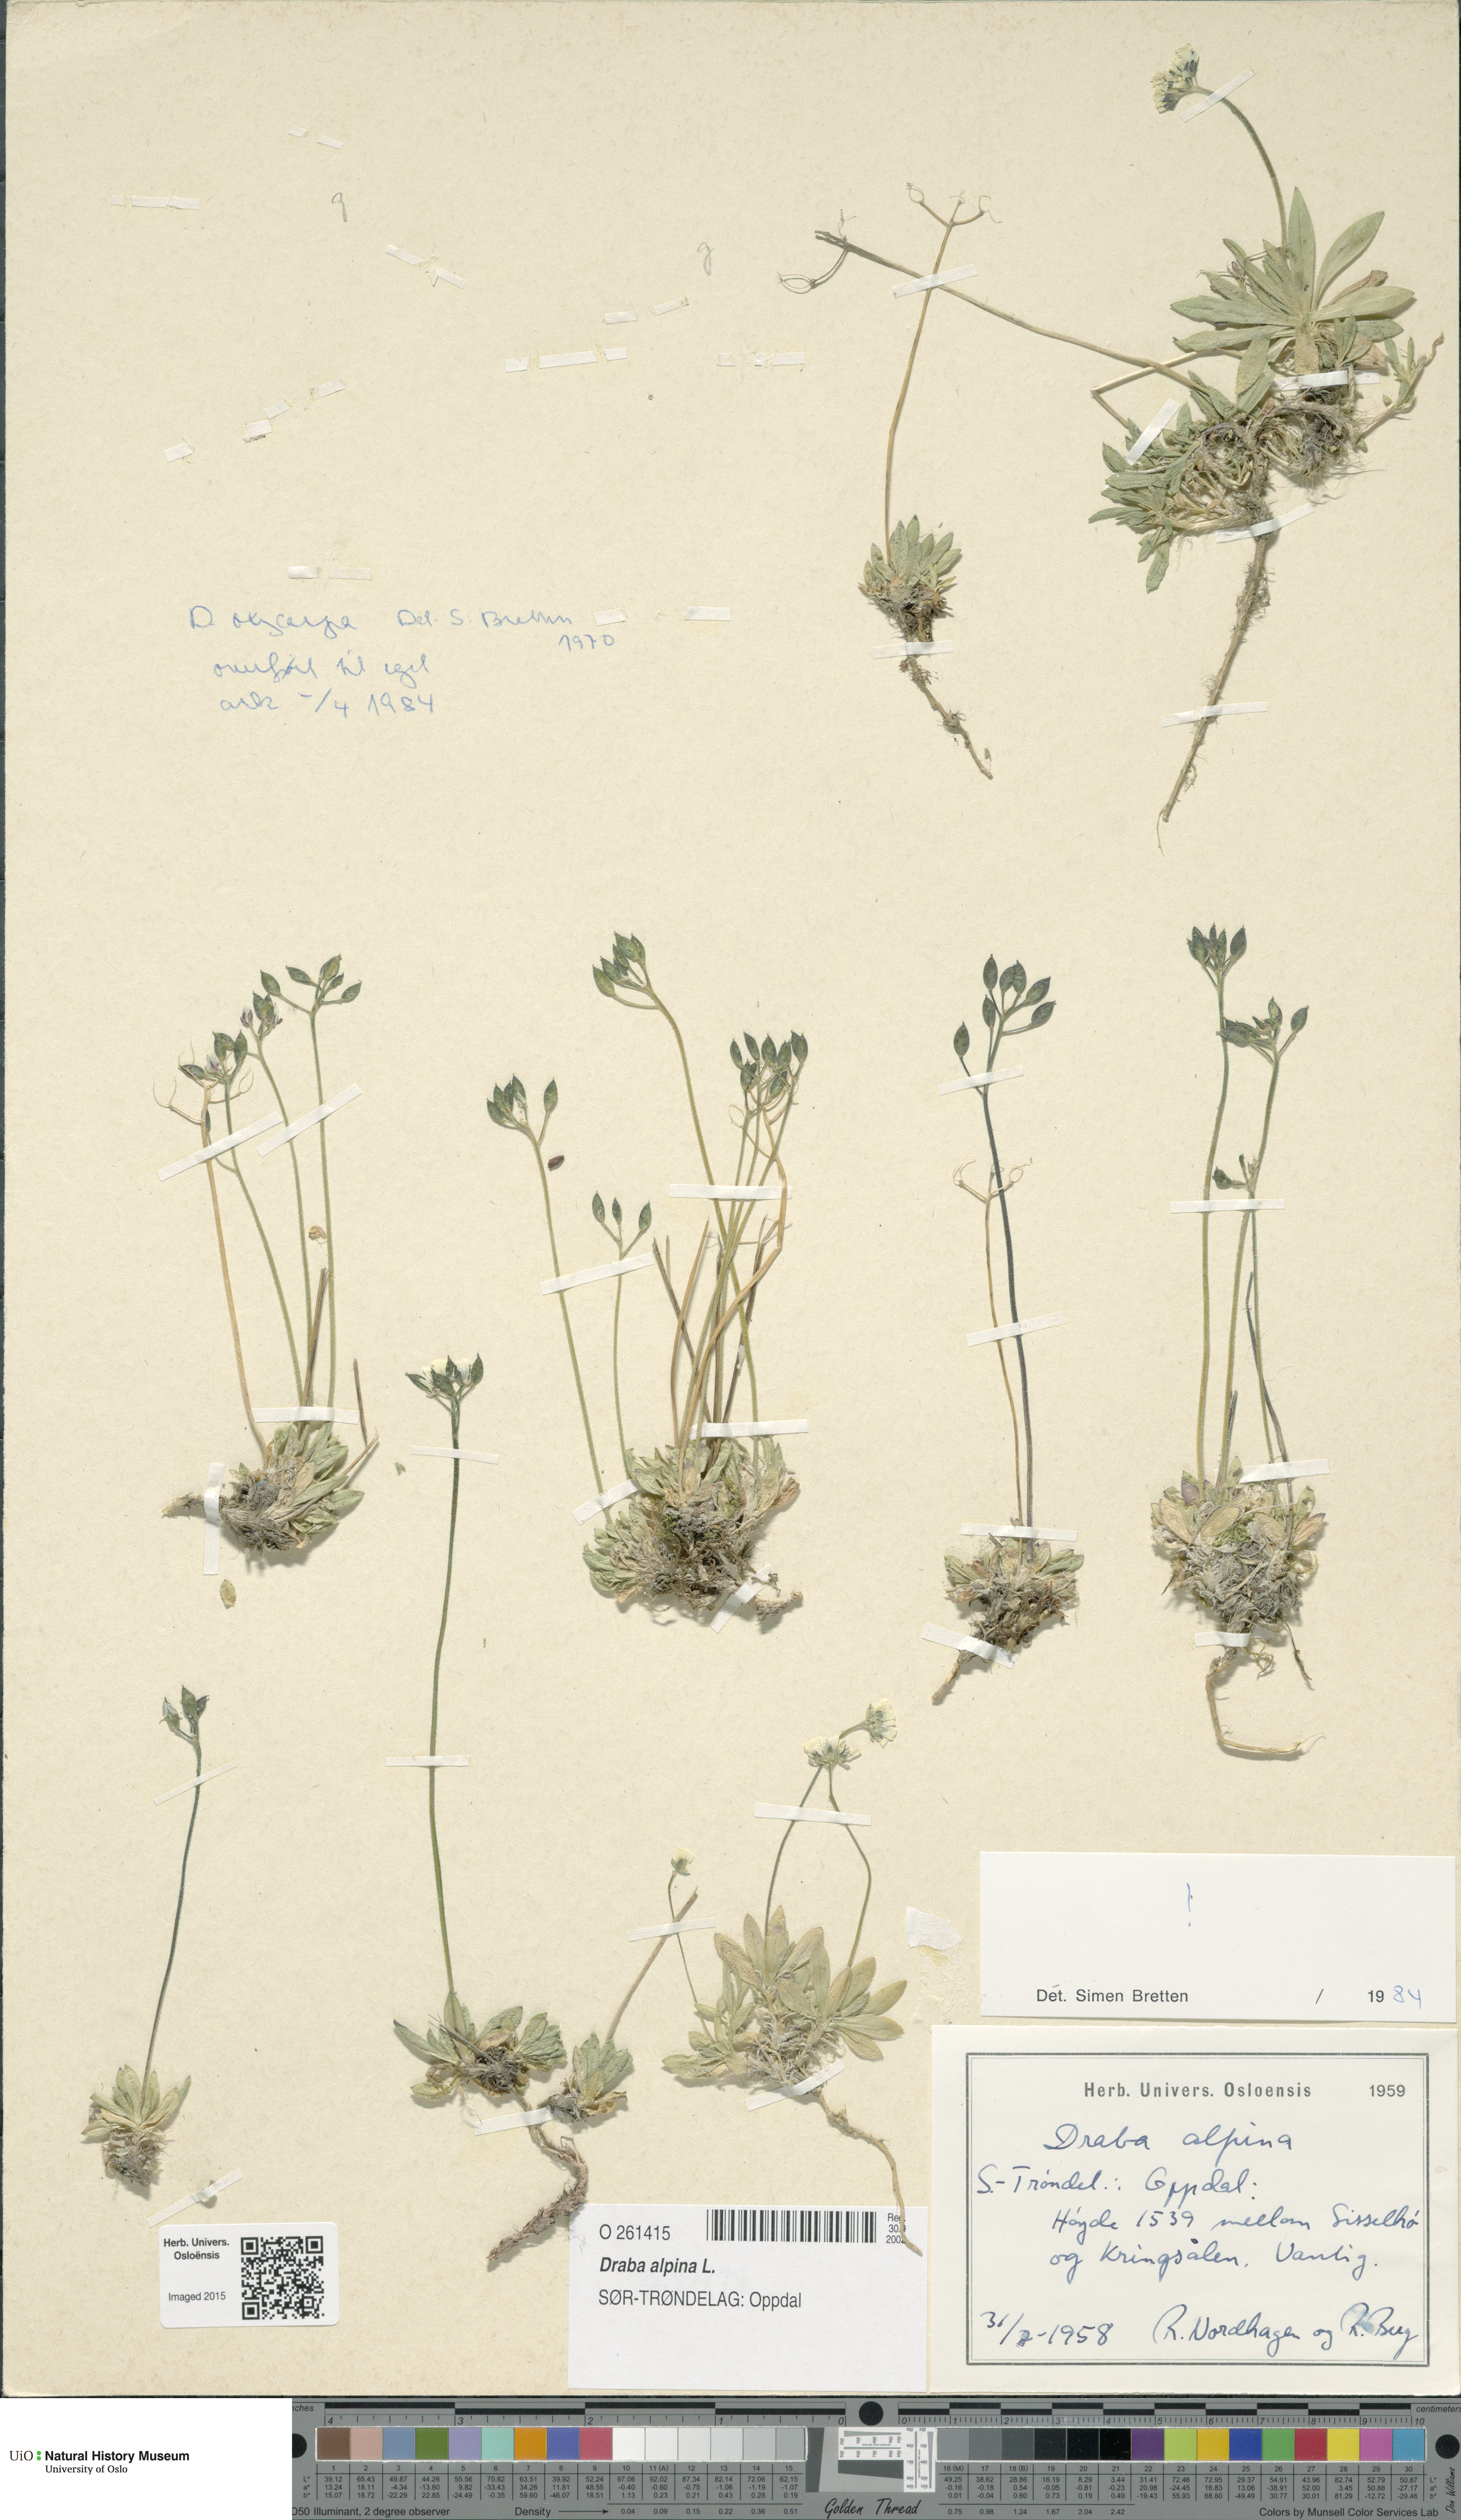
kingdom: Plantae
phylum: Tracheophyta
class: Magnoliopsida
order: Brassicales
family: Brassicaceae
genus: Draba
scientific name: Draba alpina
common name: Alpine draba
